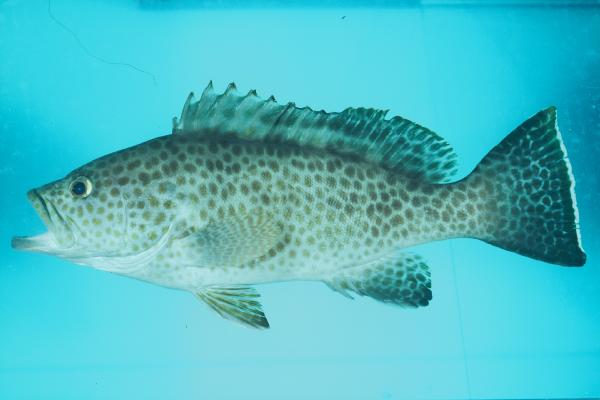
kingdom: Animalia
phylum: Chordata
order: Perciformes
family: Serranidae
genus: Epinephelus
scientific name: Epinephelus areolatus
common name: Areolate grouper
